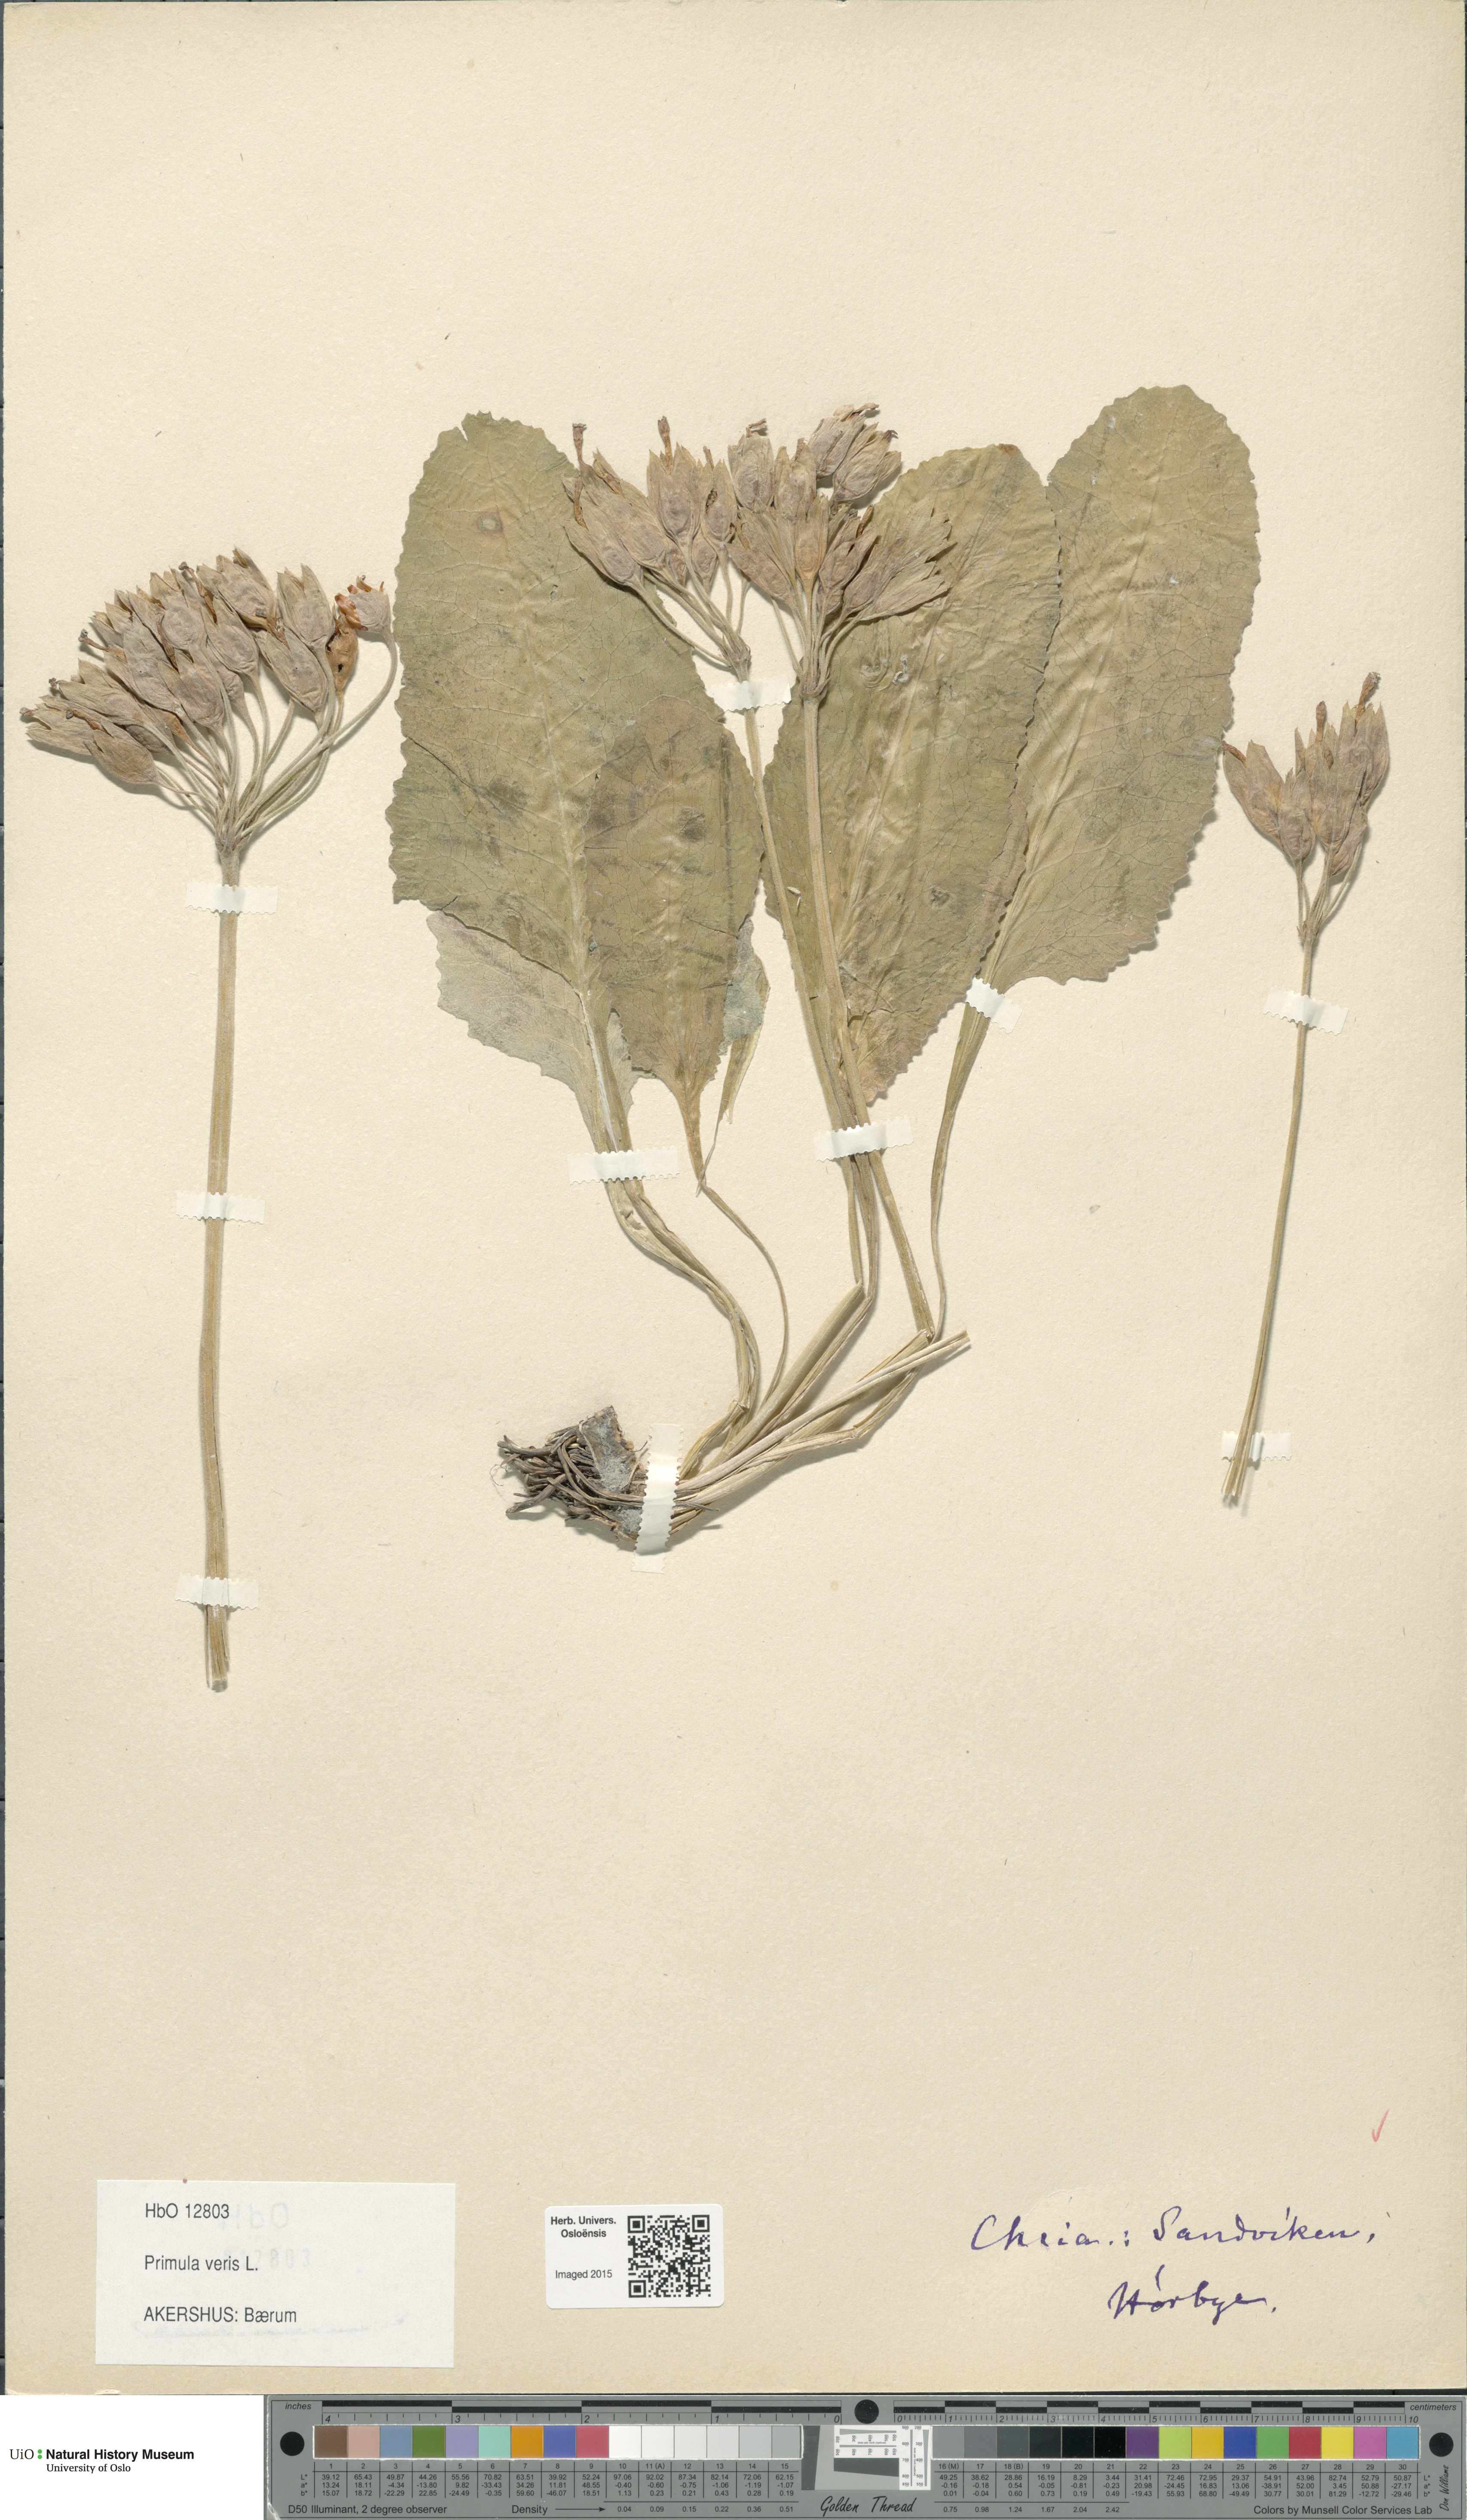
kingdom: Plantae
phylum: Tracheophyta
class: Magnoliopsida
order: Ericales
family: Primulaceae
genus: Primula
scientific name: Primula veris
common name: Cowslip
